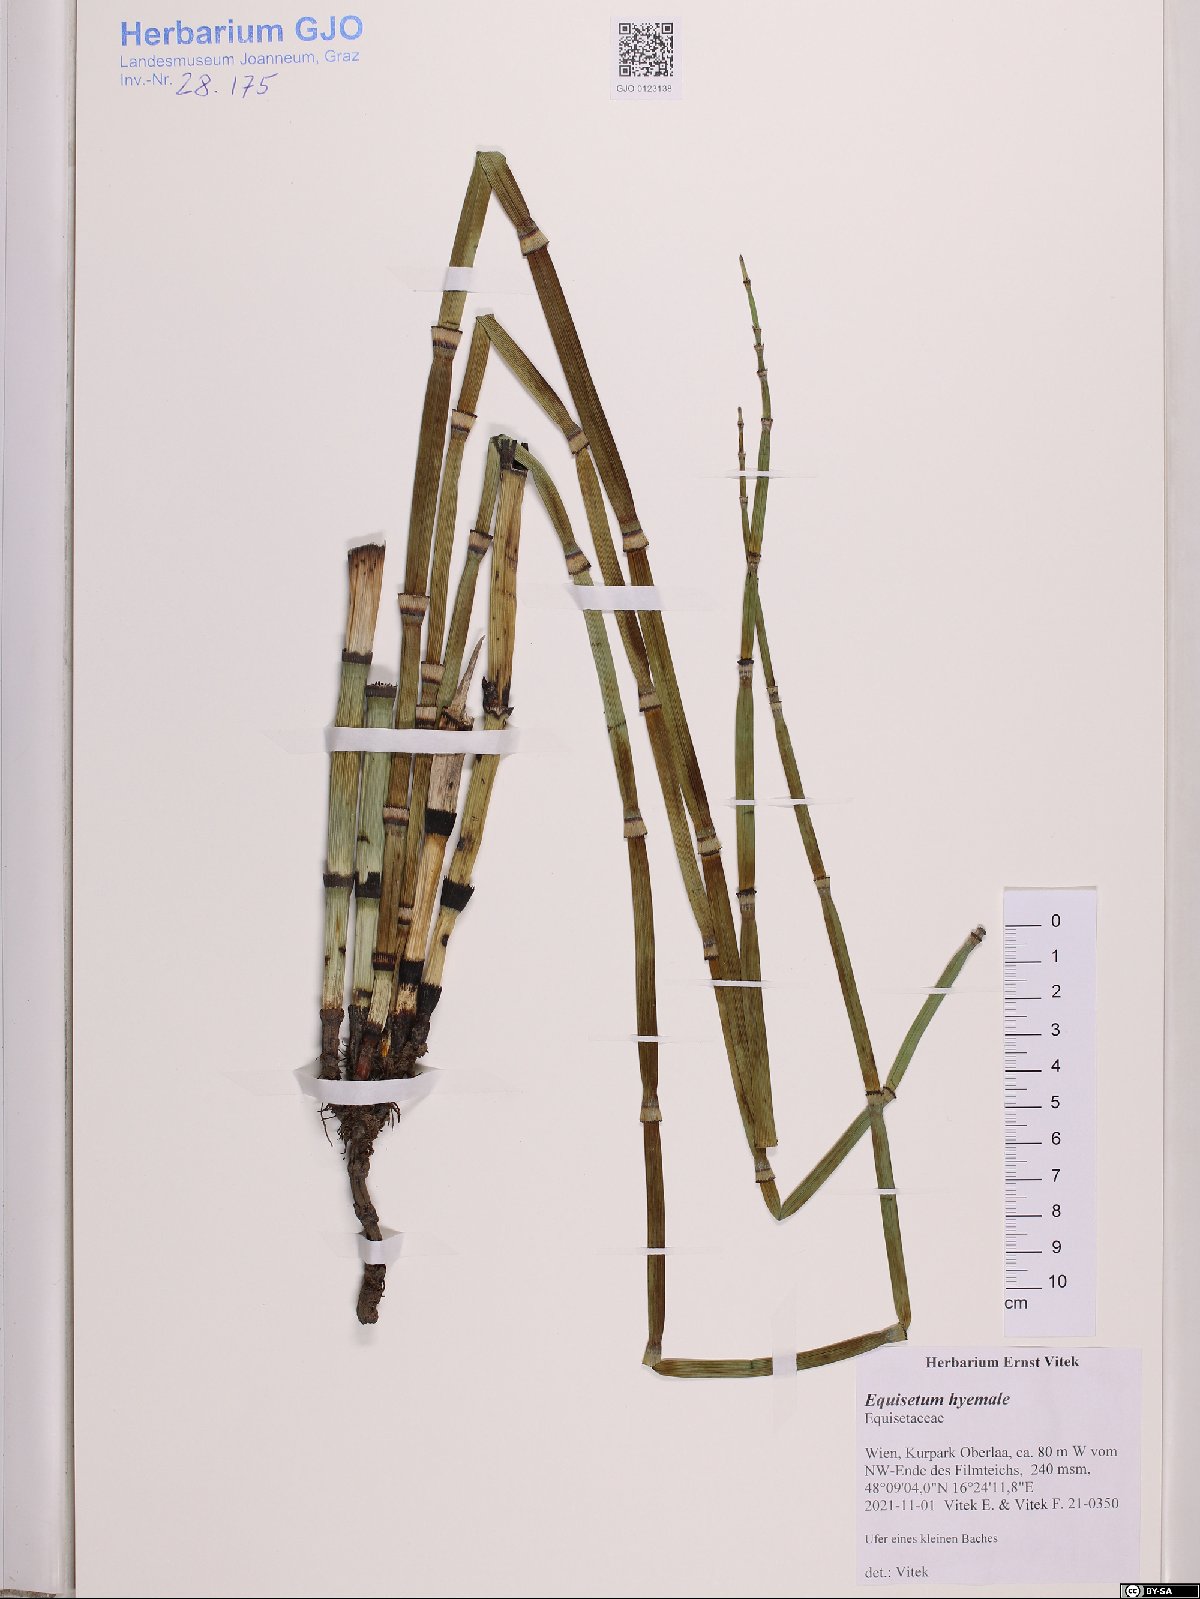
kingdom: Plantae
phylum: Tracheophyta
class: Polypodiopsida
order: Equisetales
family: Equisetaceae
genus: Equisetum
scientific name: Equisetum hyemale
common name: Rough horsetail
